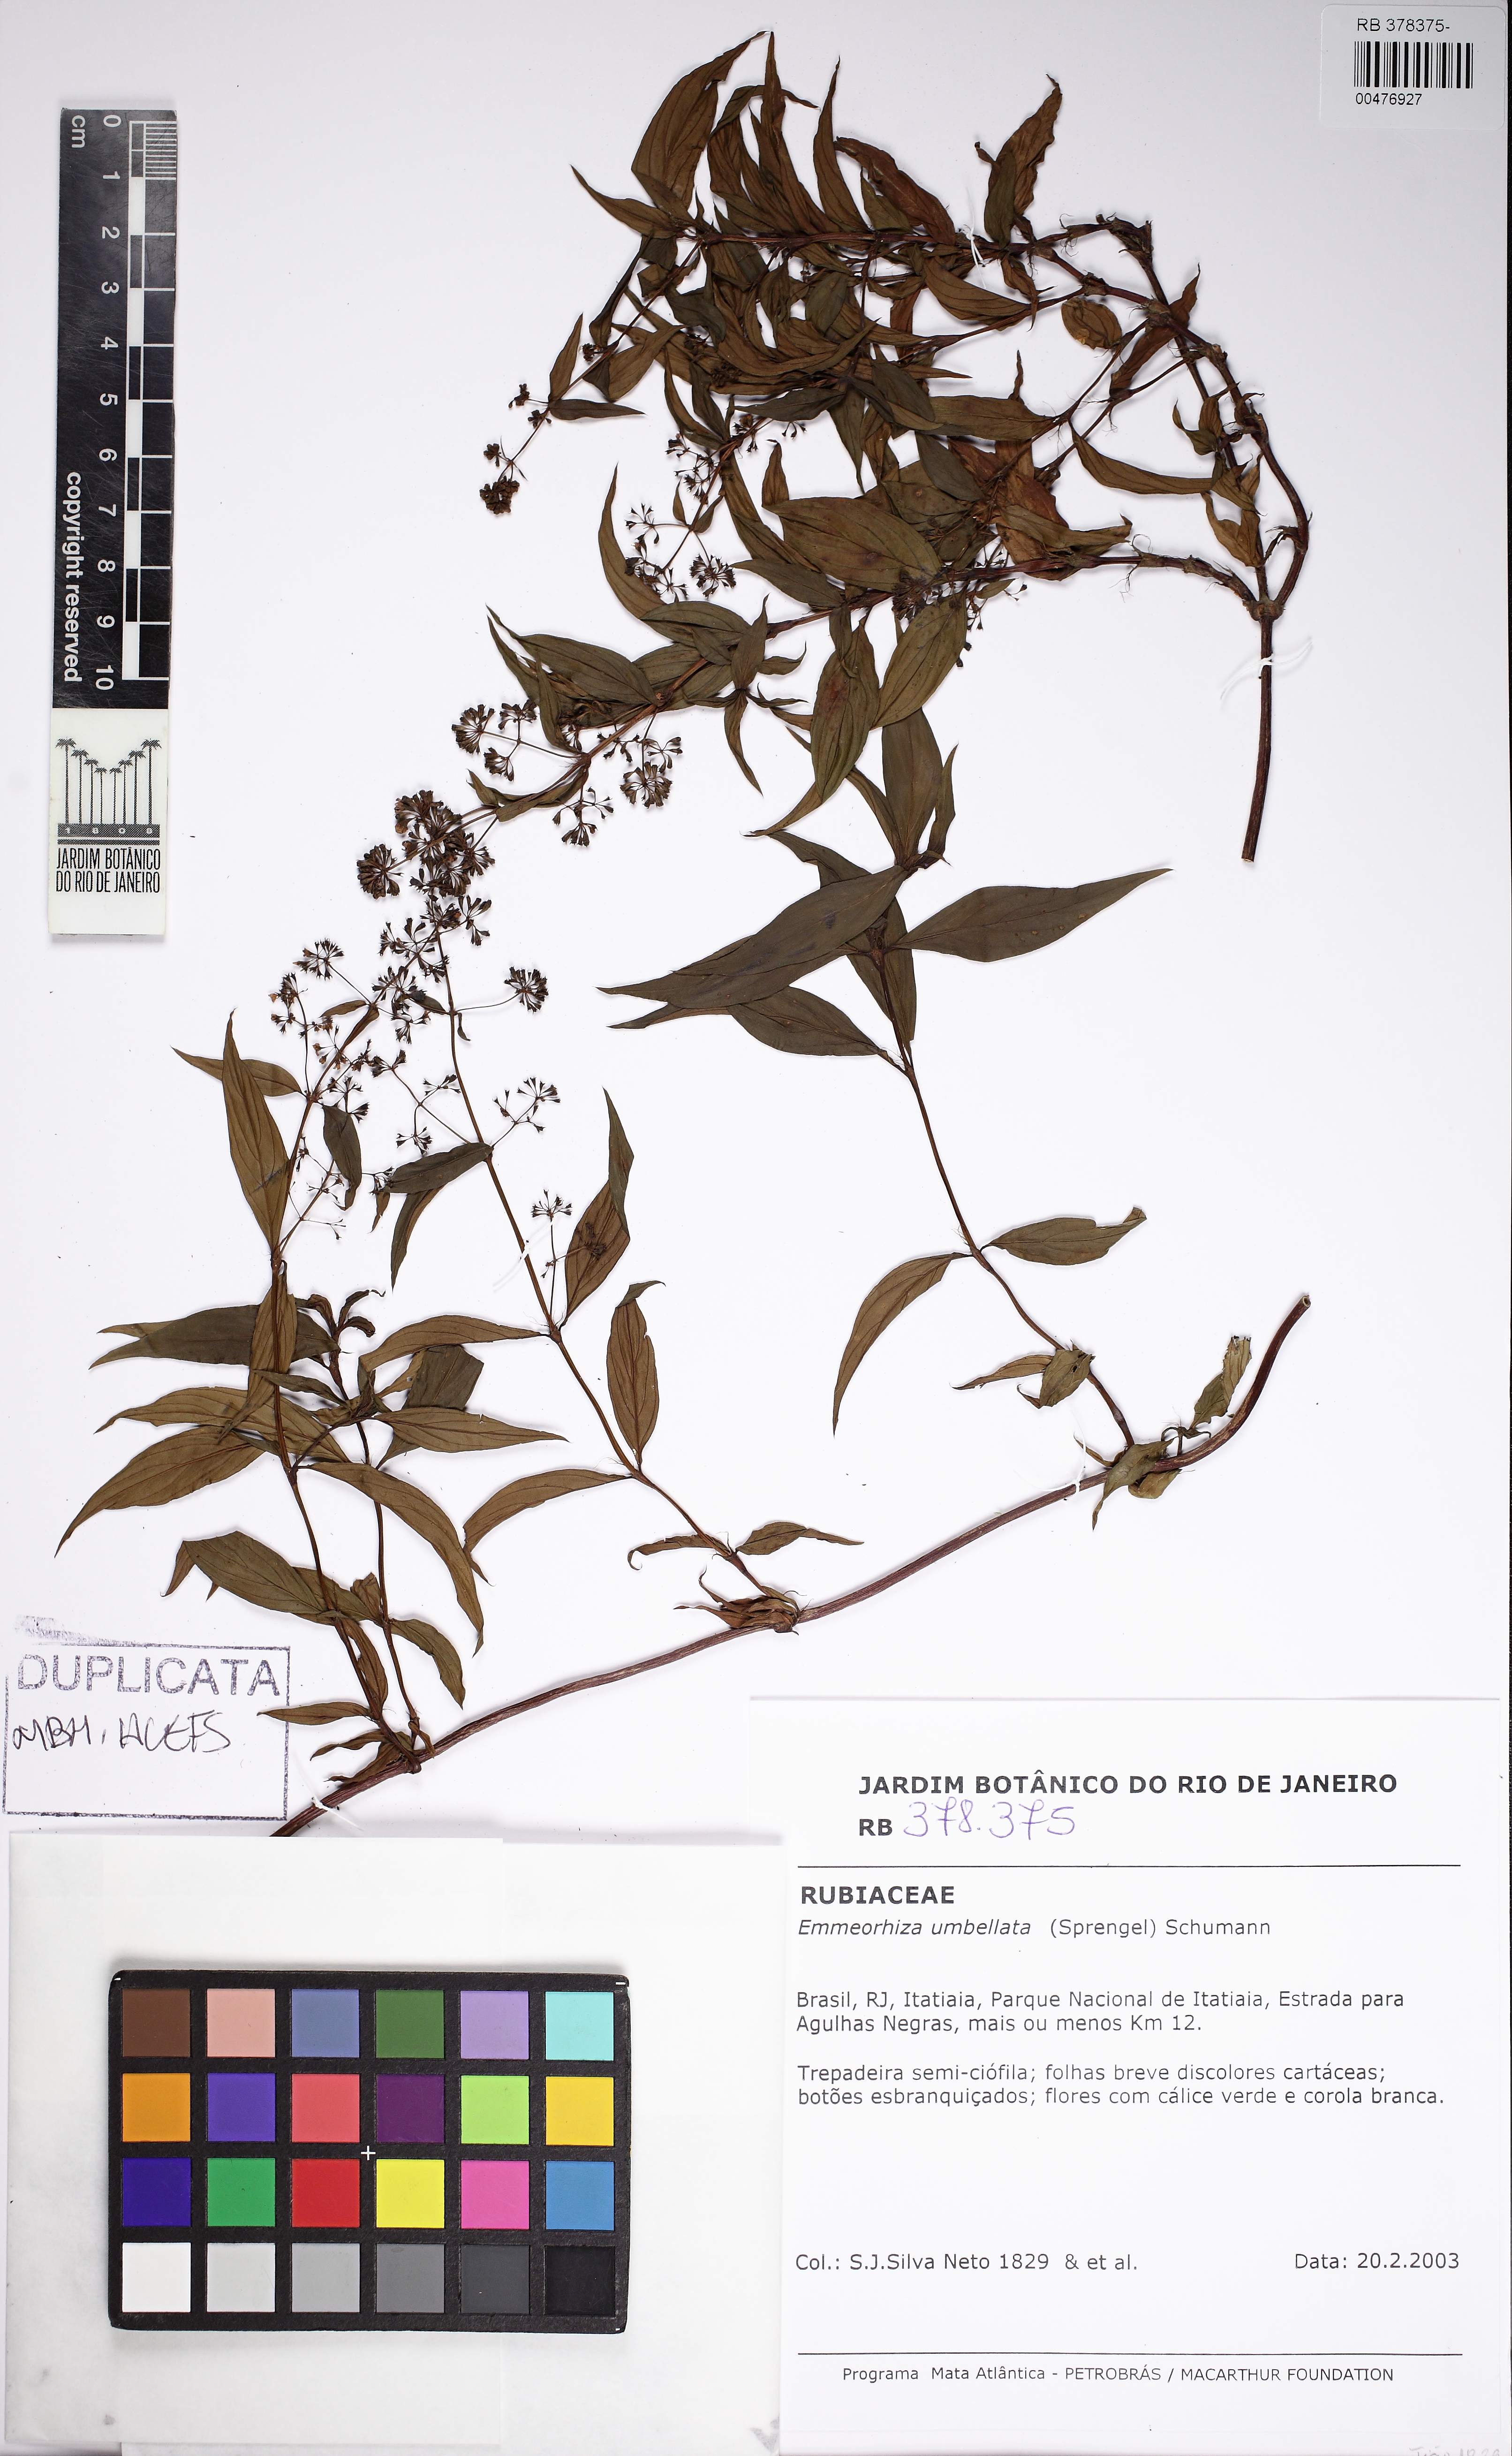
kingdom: Plantae
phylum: Tracheophyta
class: Magnoliopsida
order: Gentianales
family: Rubiaceae
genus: Emmeorhiza
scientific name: Emmeorhiza umbellata
